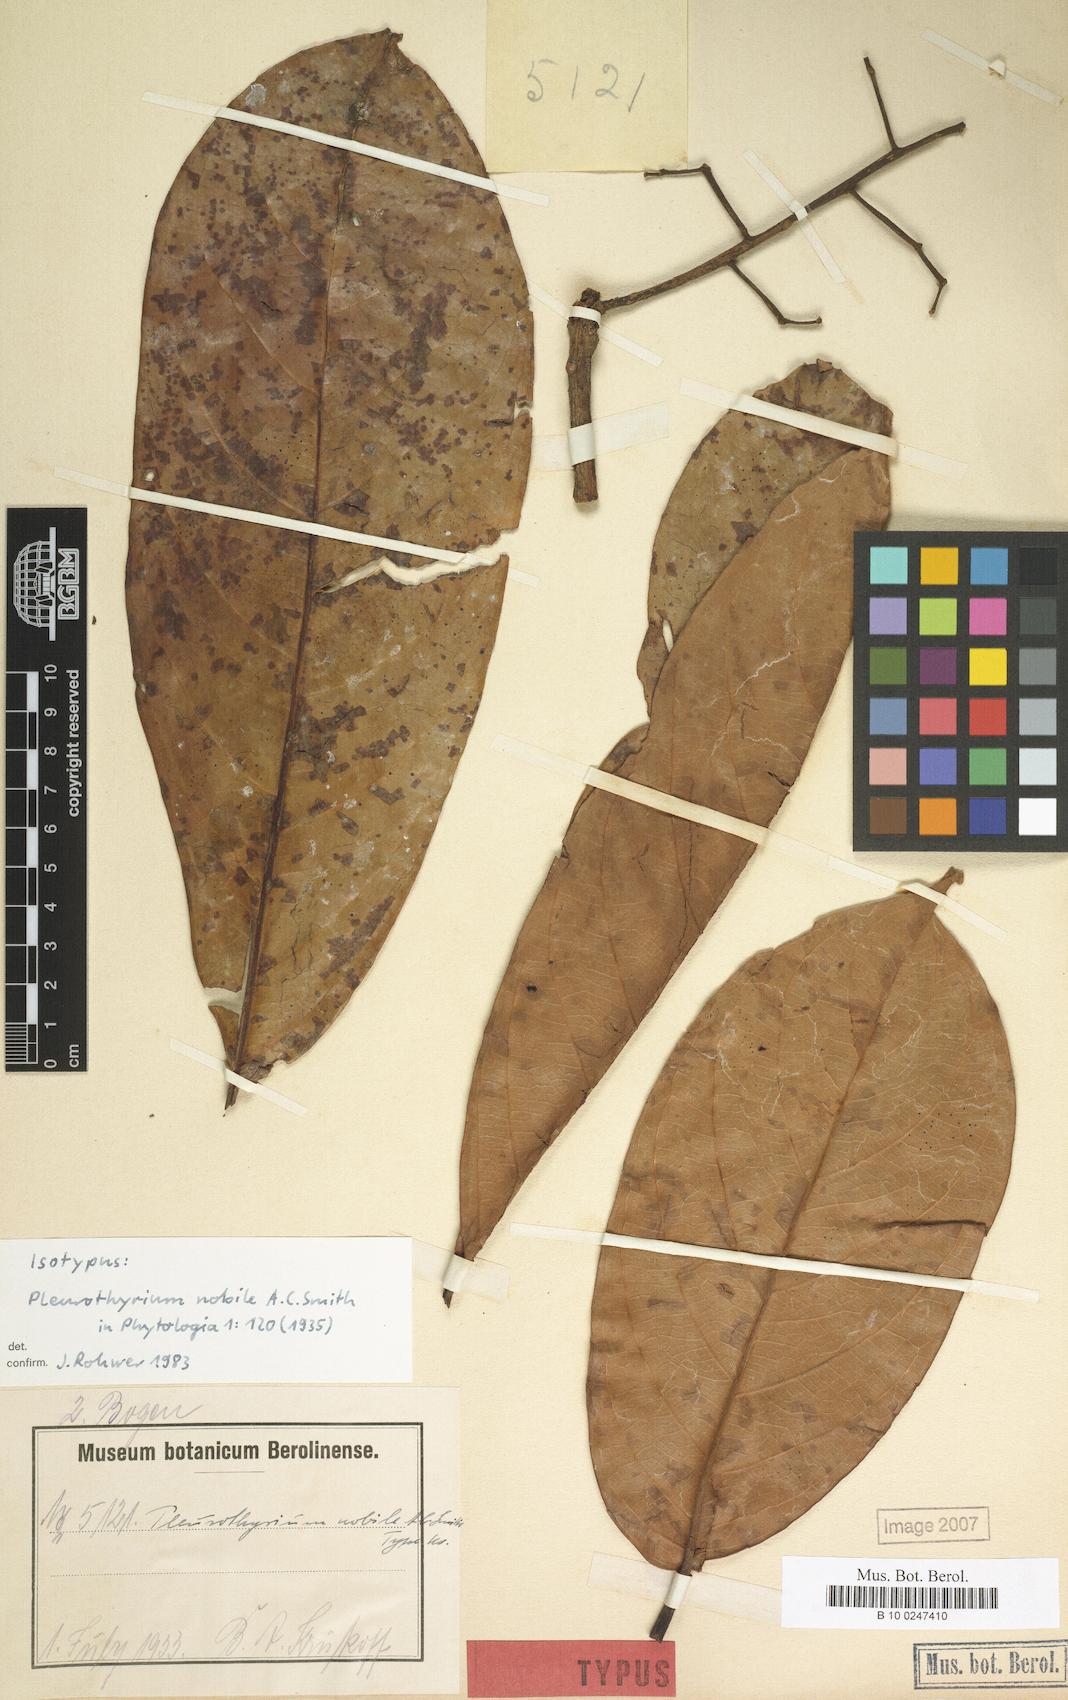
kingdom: Plantae
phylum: Tracheophyta
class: Magnoliopsida
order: Laurales
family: Lauraceae
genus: Ocotea
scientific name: Ocotea nobilis
